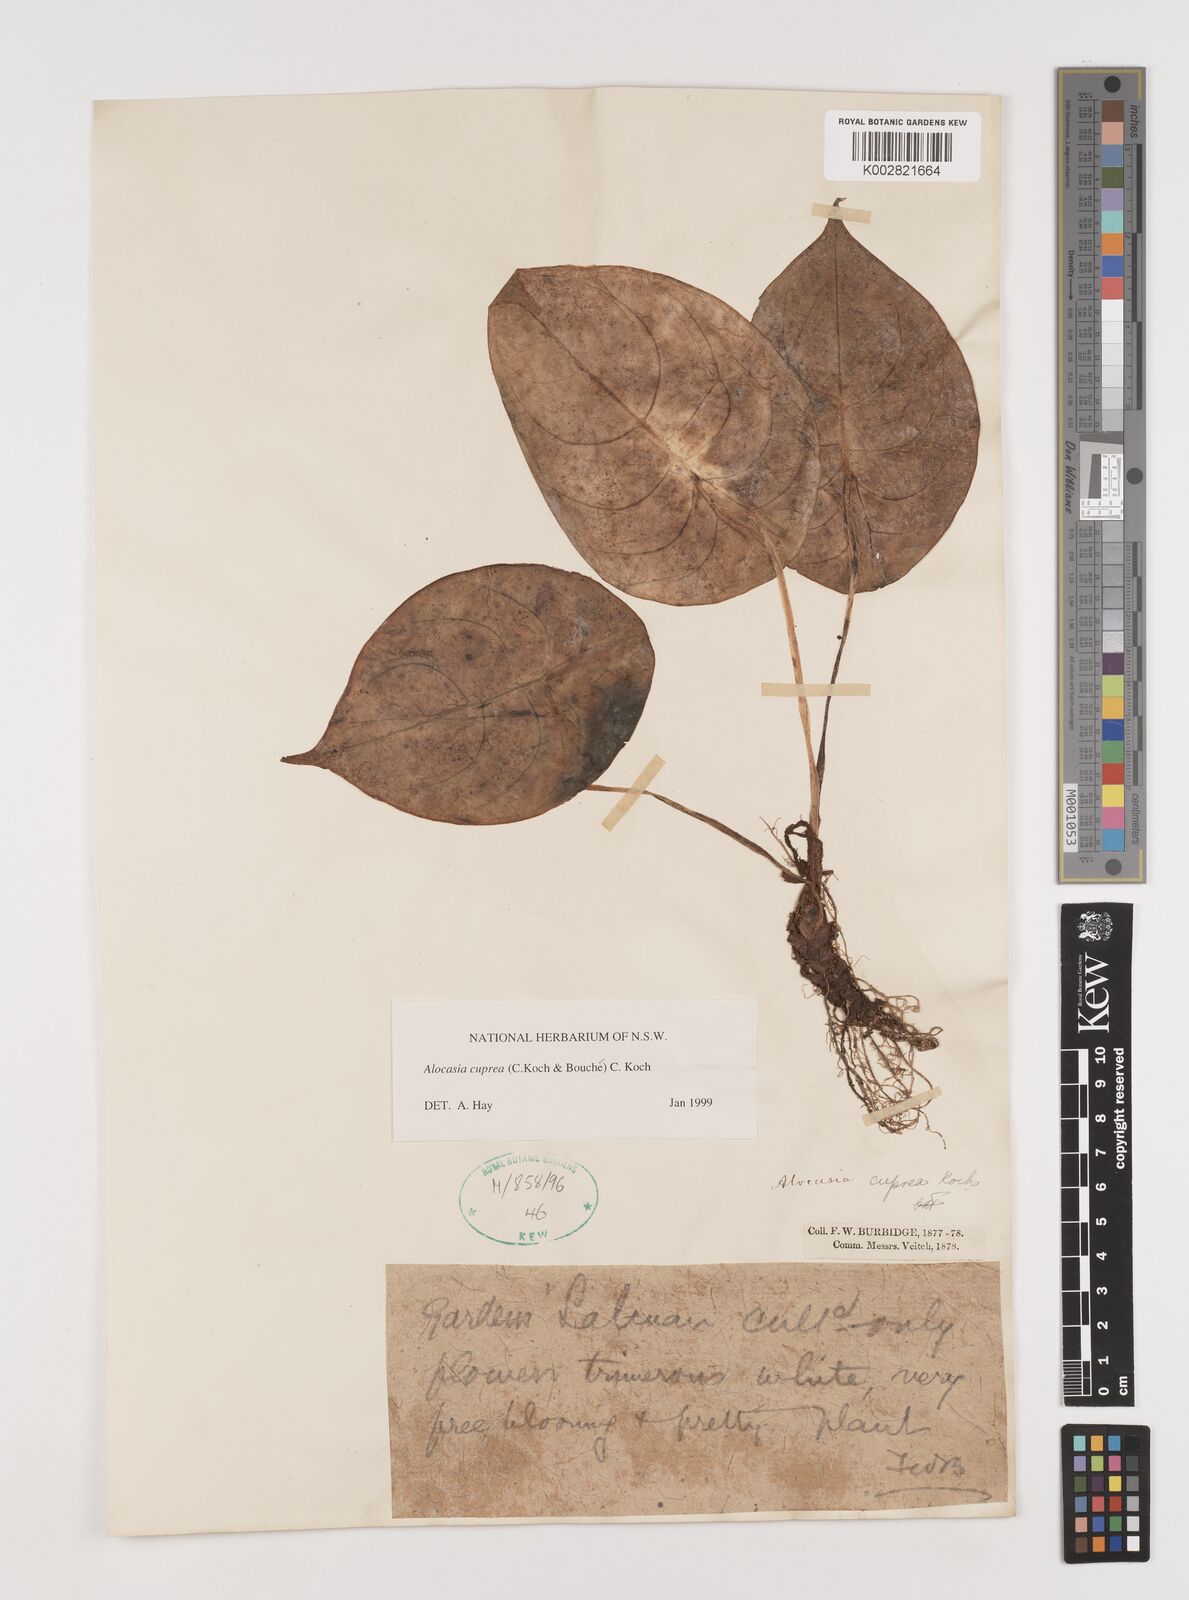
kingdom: Plantae
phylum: Tracheophyta
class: Liliopsida
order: Alismatales
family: Araceae
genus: Alocasia
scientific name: Alocasia cuprea
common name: Giant caladium
